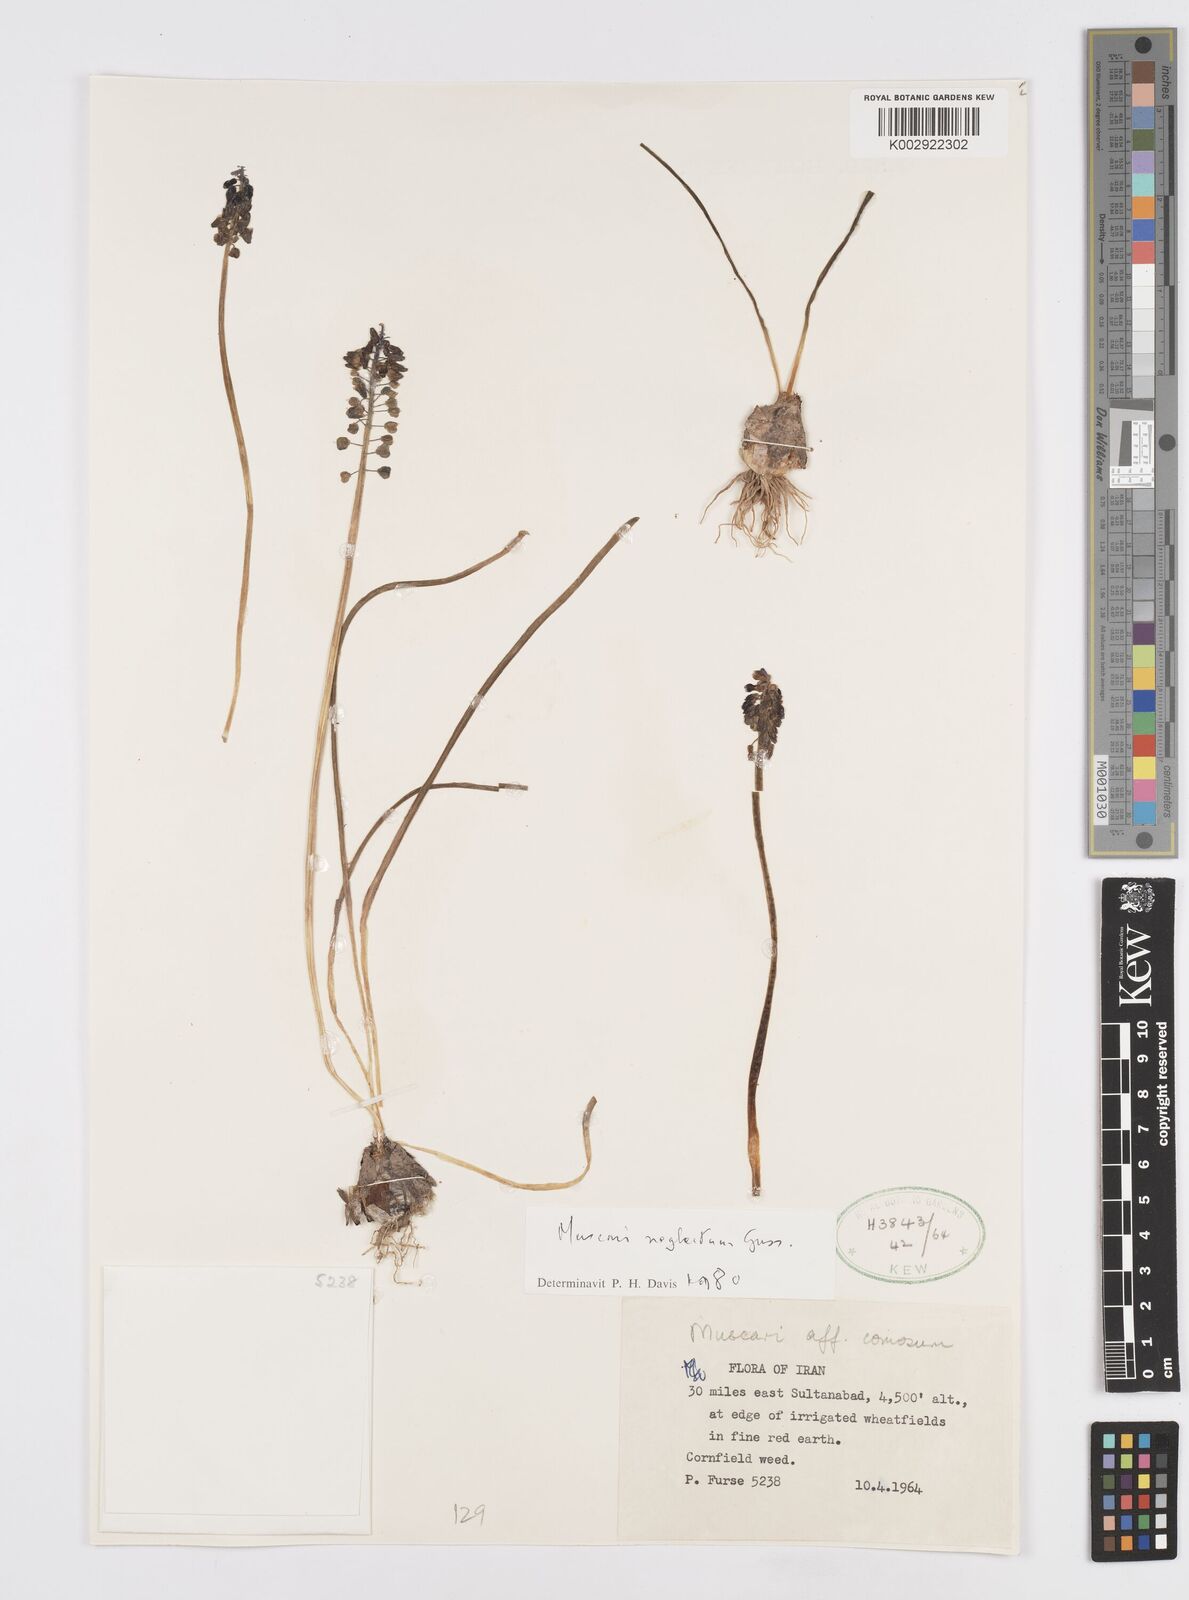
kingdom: Plantae
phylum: Tracheophyta
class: Liliopsida
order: Asparagales
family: Asparagaceae
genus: Muscari
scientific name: Muscari comosum
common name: Tassel hyacinth
